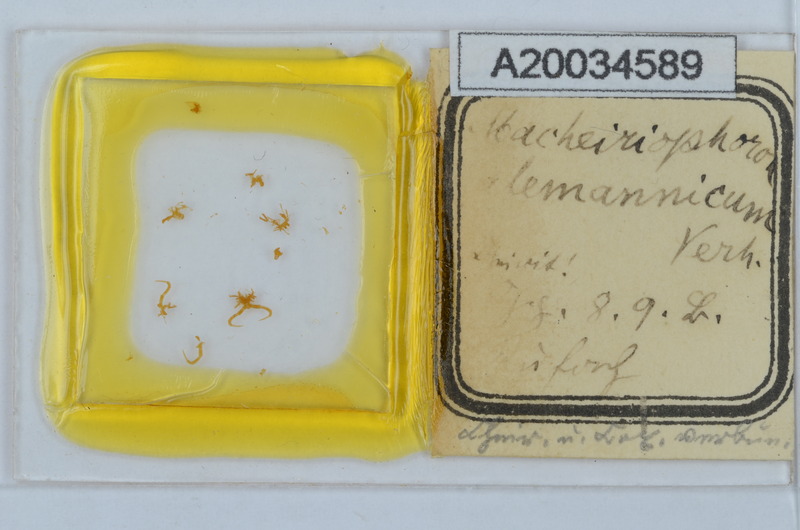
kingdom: Animalia
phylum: Arthropoda
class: Diplopoda
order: Chordeumatida
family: Craspedosomatidae
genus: Macheiriophoron
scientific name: Macheiriophoron alemannicum
